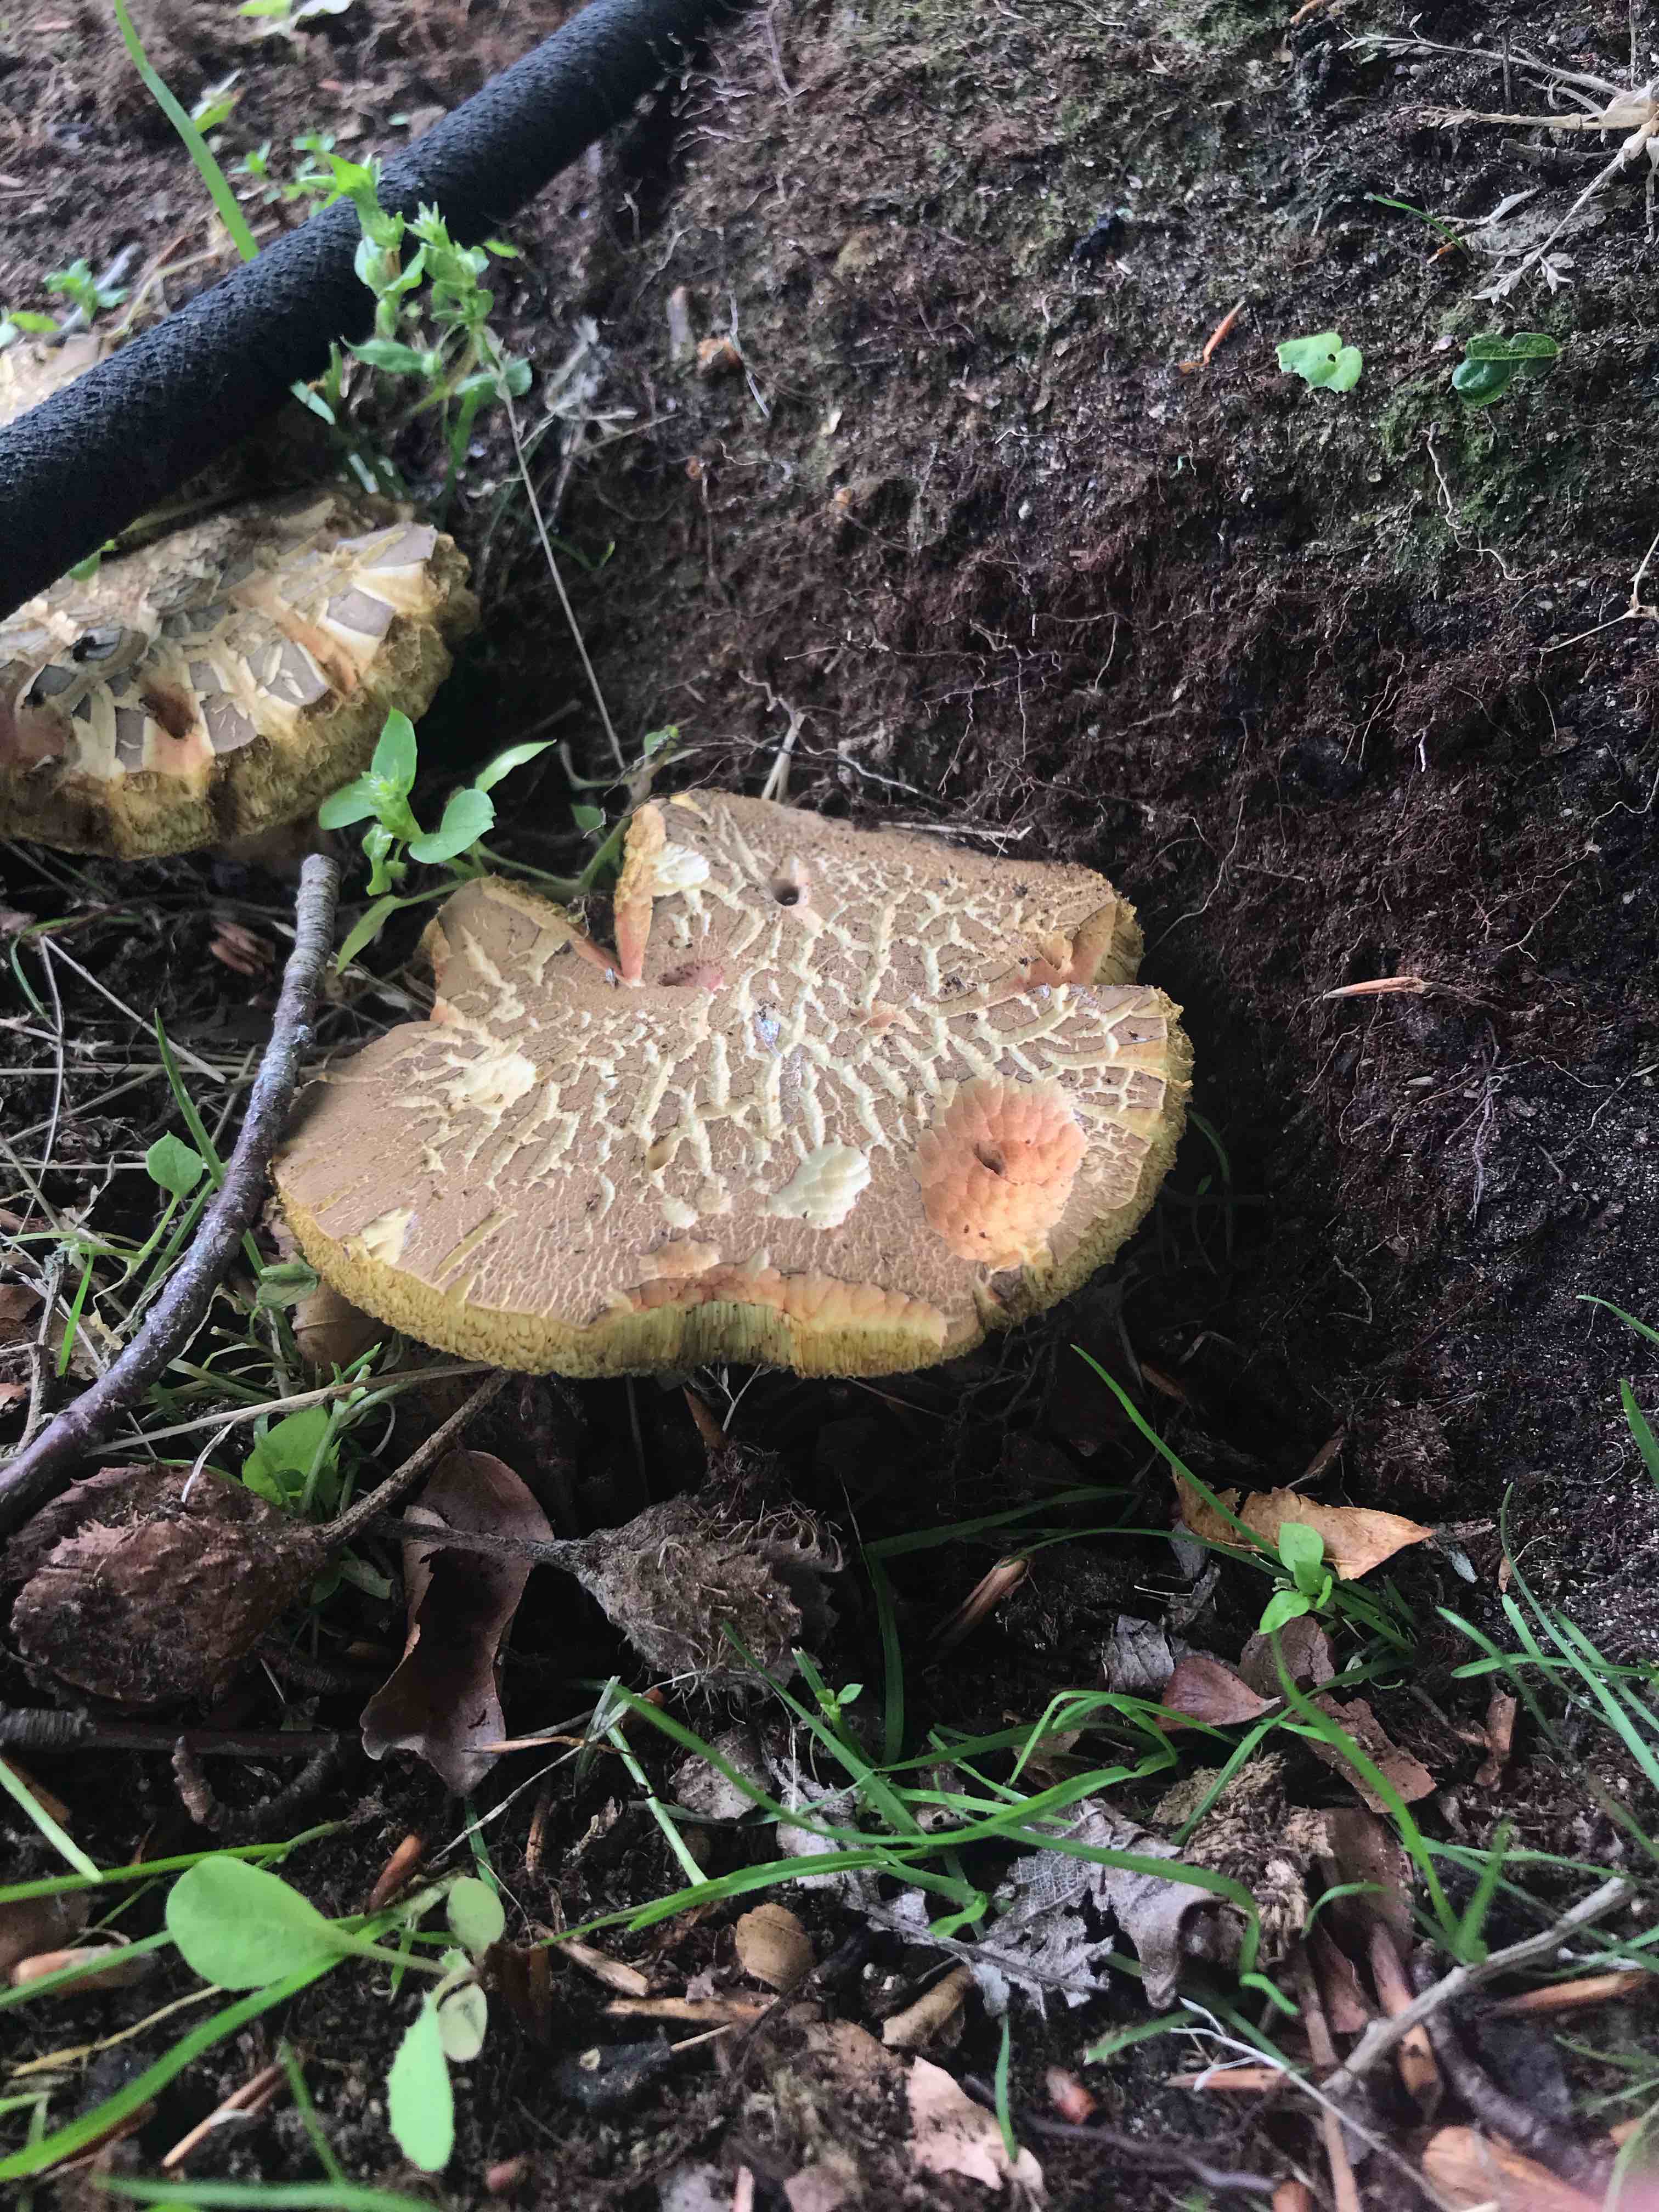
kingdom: Fungi
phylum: Basidiomycota
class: Agaricomycetes
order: Boletales
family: Boletaceae
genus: Xerocomellus
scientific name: Xerocomellus
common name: dværgrørhat
